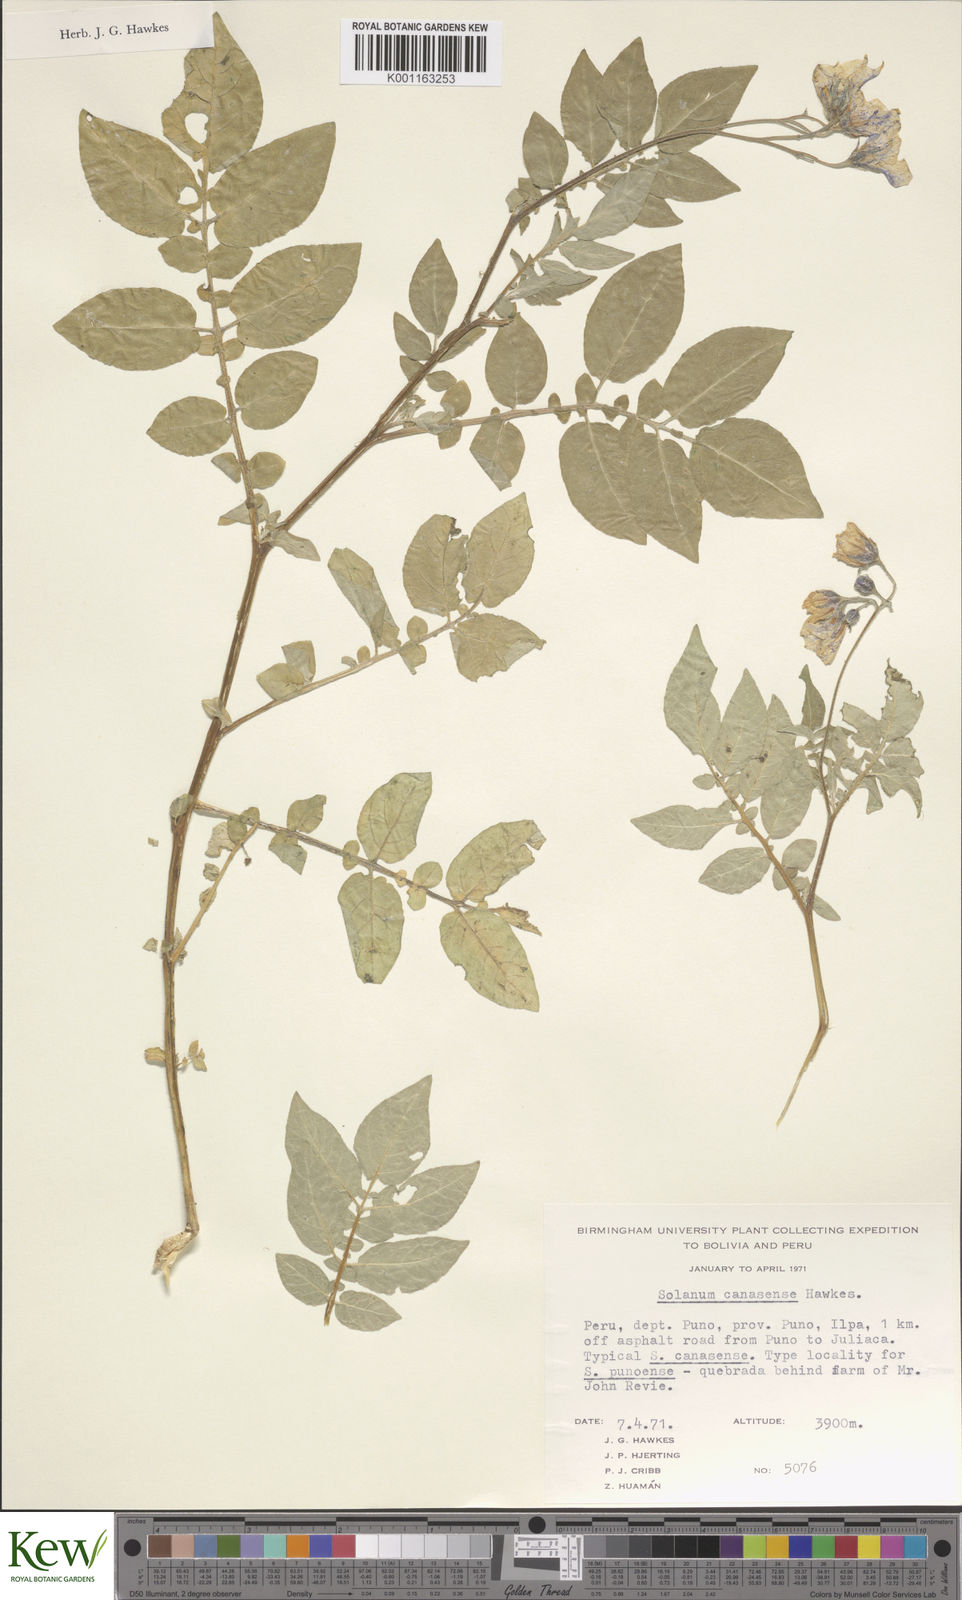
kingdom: Plantae
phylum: Tracheophyta
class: Magnoliopsida
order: Solanales
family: Solanaceae
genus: Solanum
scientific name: Solanum candolleanum
